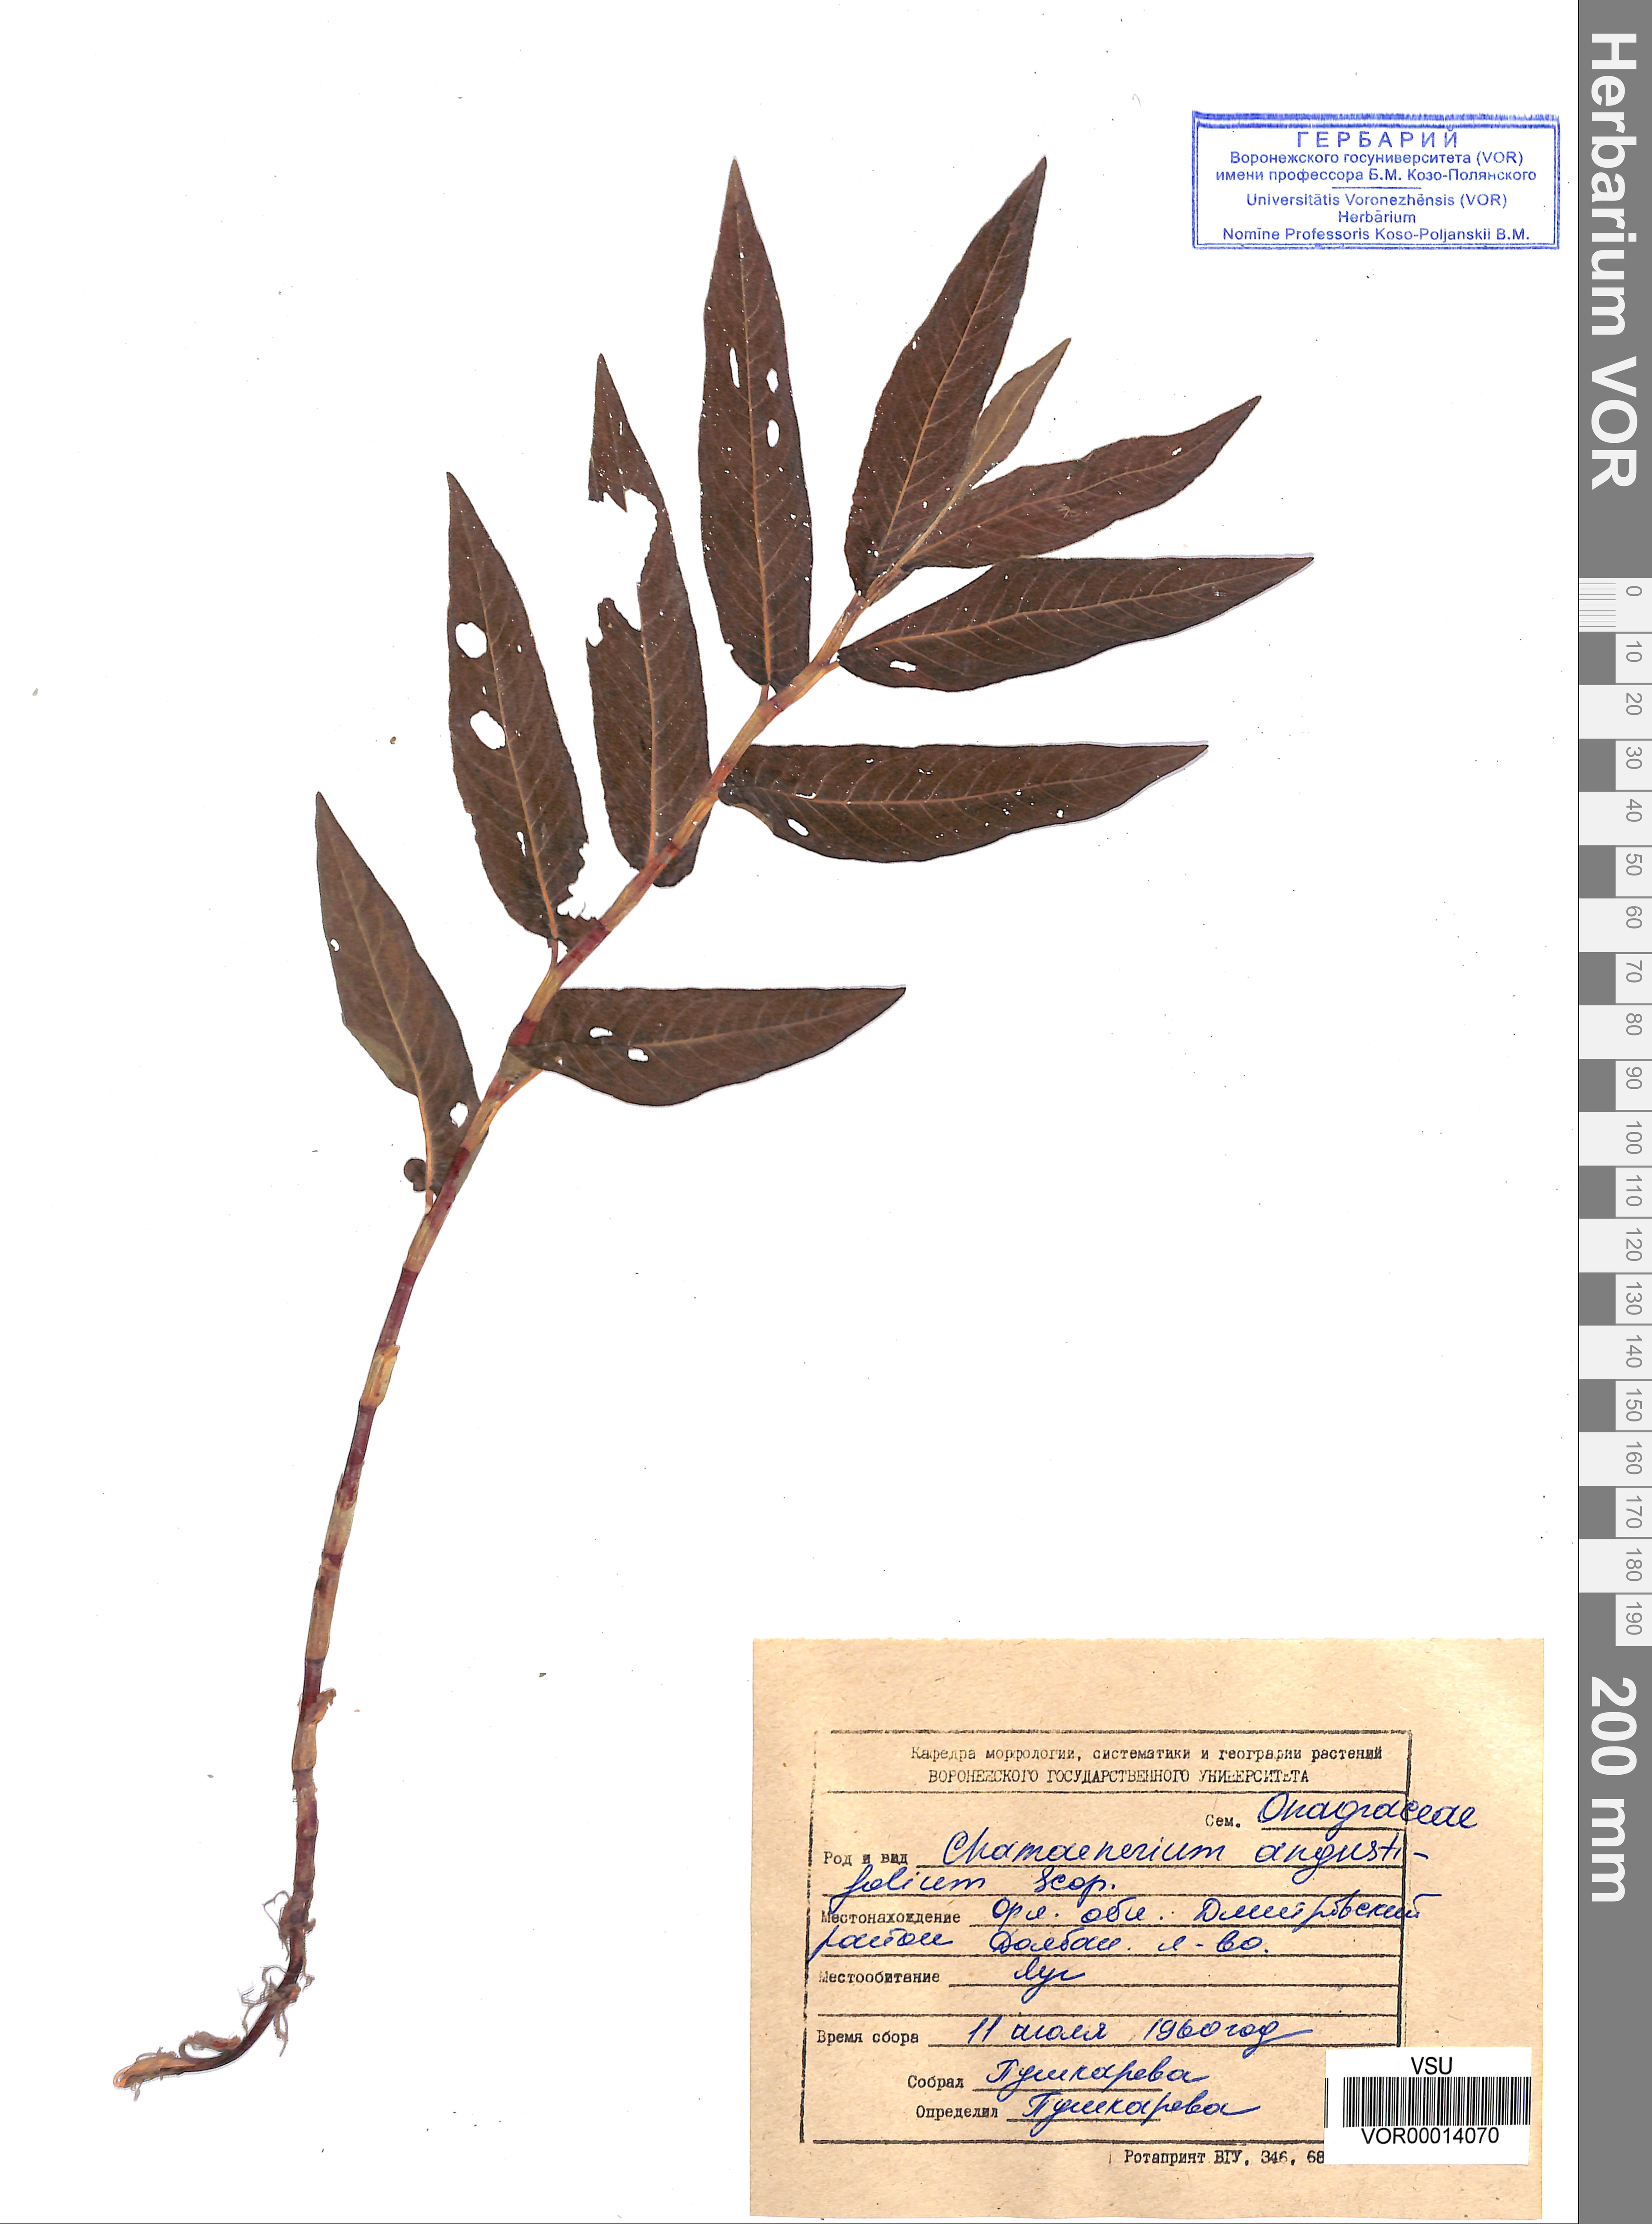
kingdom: Plantae
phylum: Tracheophyta
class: Magnoliopsida
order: Myrtales
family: Onagraceae
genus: Chamaenerion
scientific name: Chamaenerion angustifolium
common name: Fireweed
